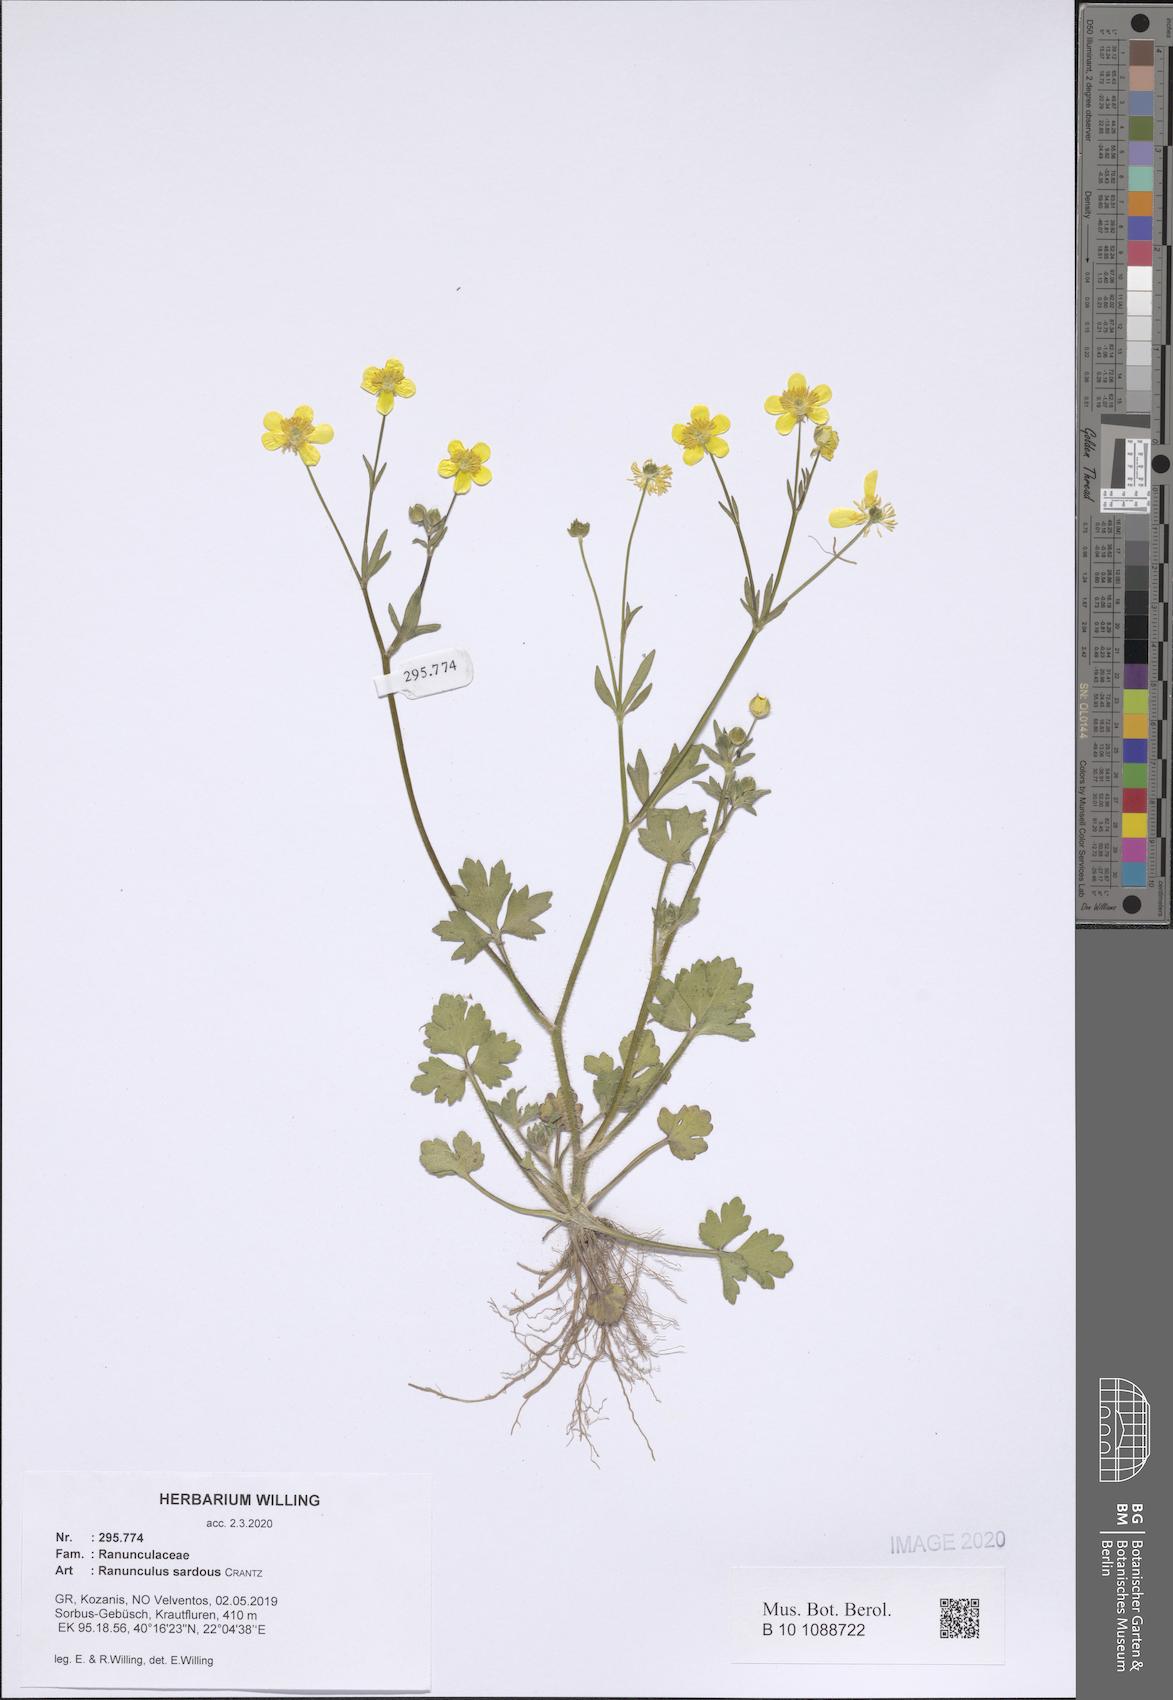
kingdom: Plantae
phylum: Tracheophyta
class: Magnoliopsida
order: Ranunculales
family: Ranunculaceae
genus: Ranunculus
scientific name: Ranunculus sardous
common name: Hairy buttercup
